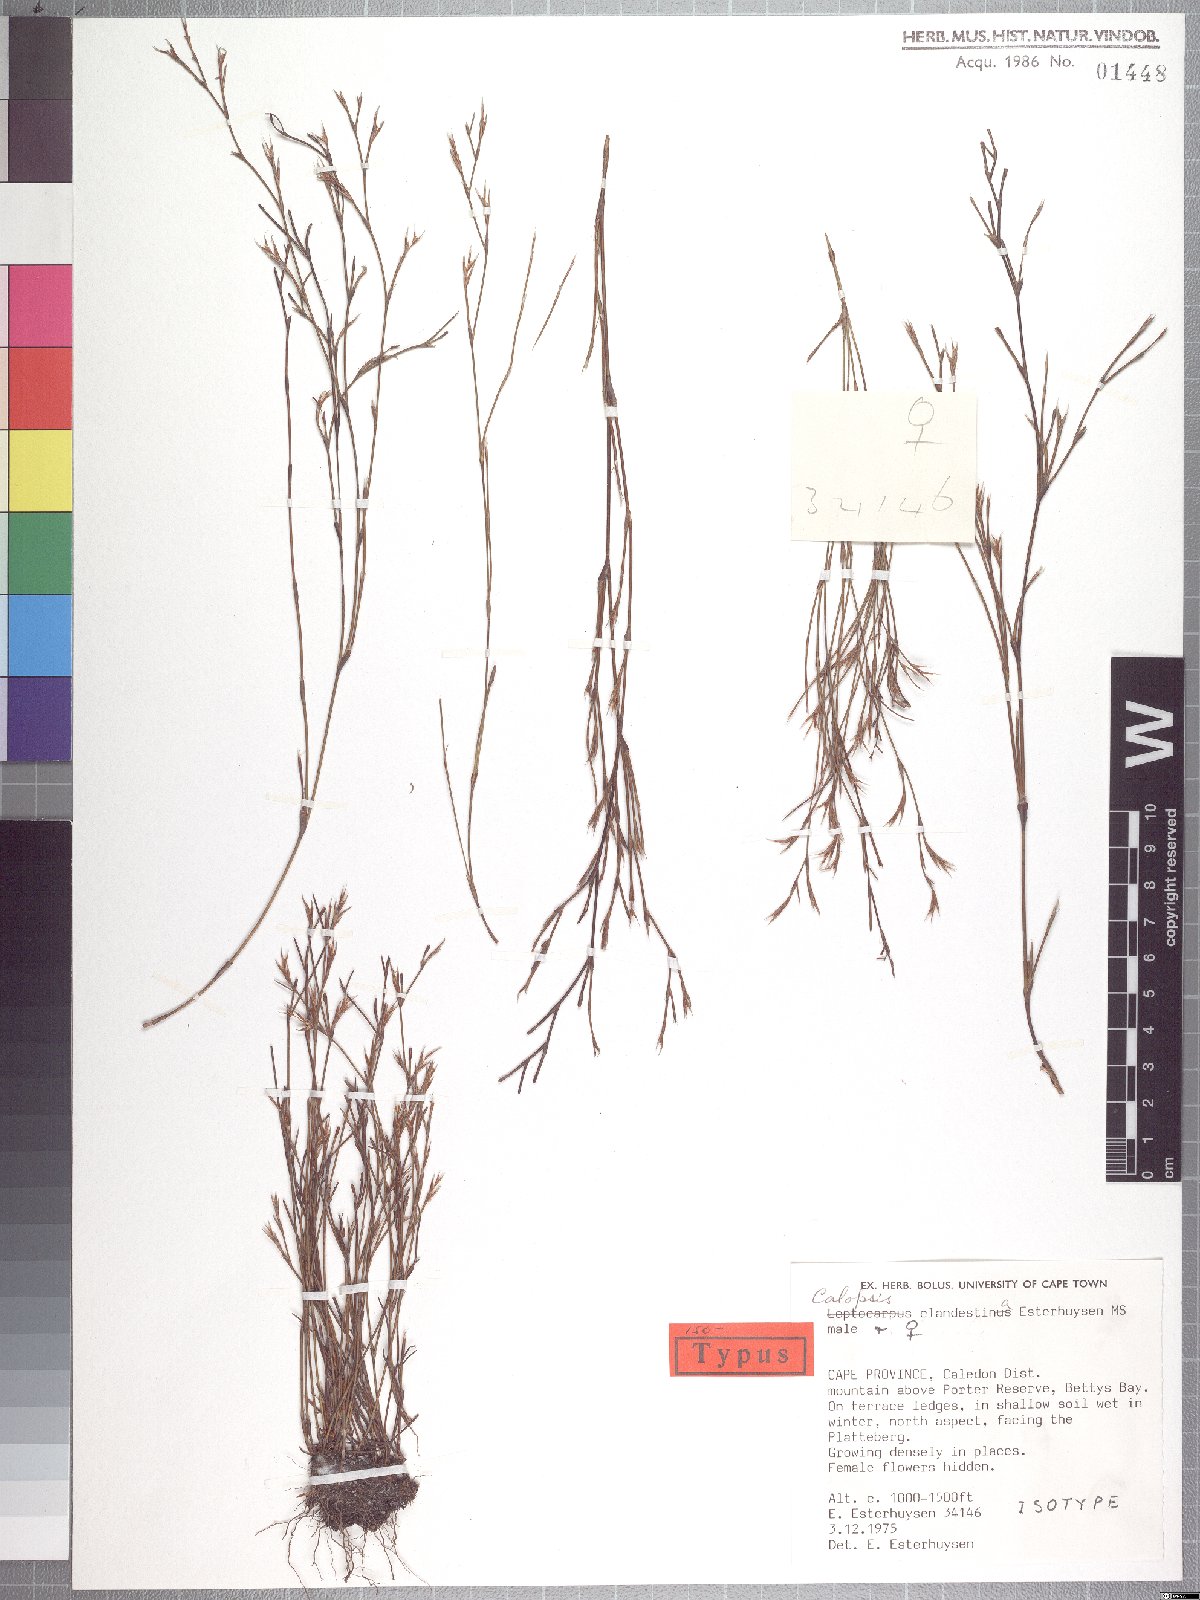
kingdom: Plantae
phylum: Tracheophyta
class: Liliopsida
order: Poales
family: Restionaceae
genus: Restio
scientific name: Restio clandestinus
